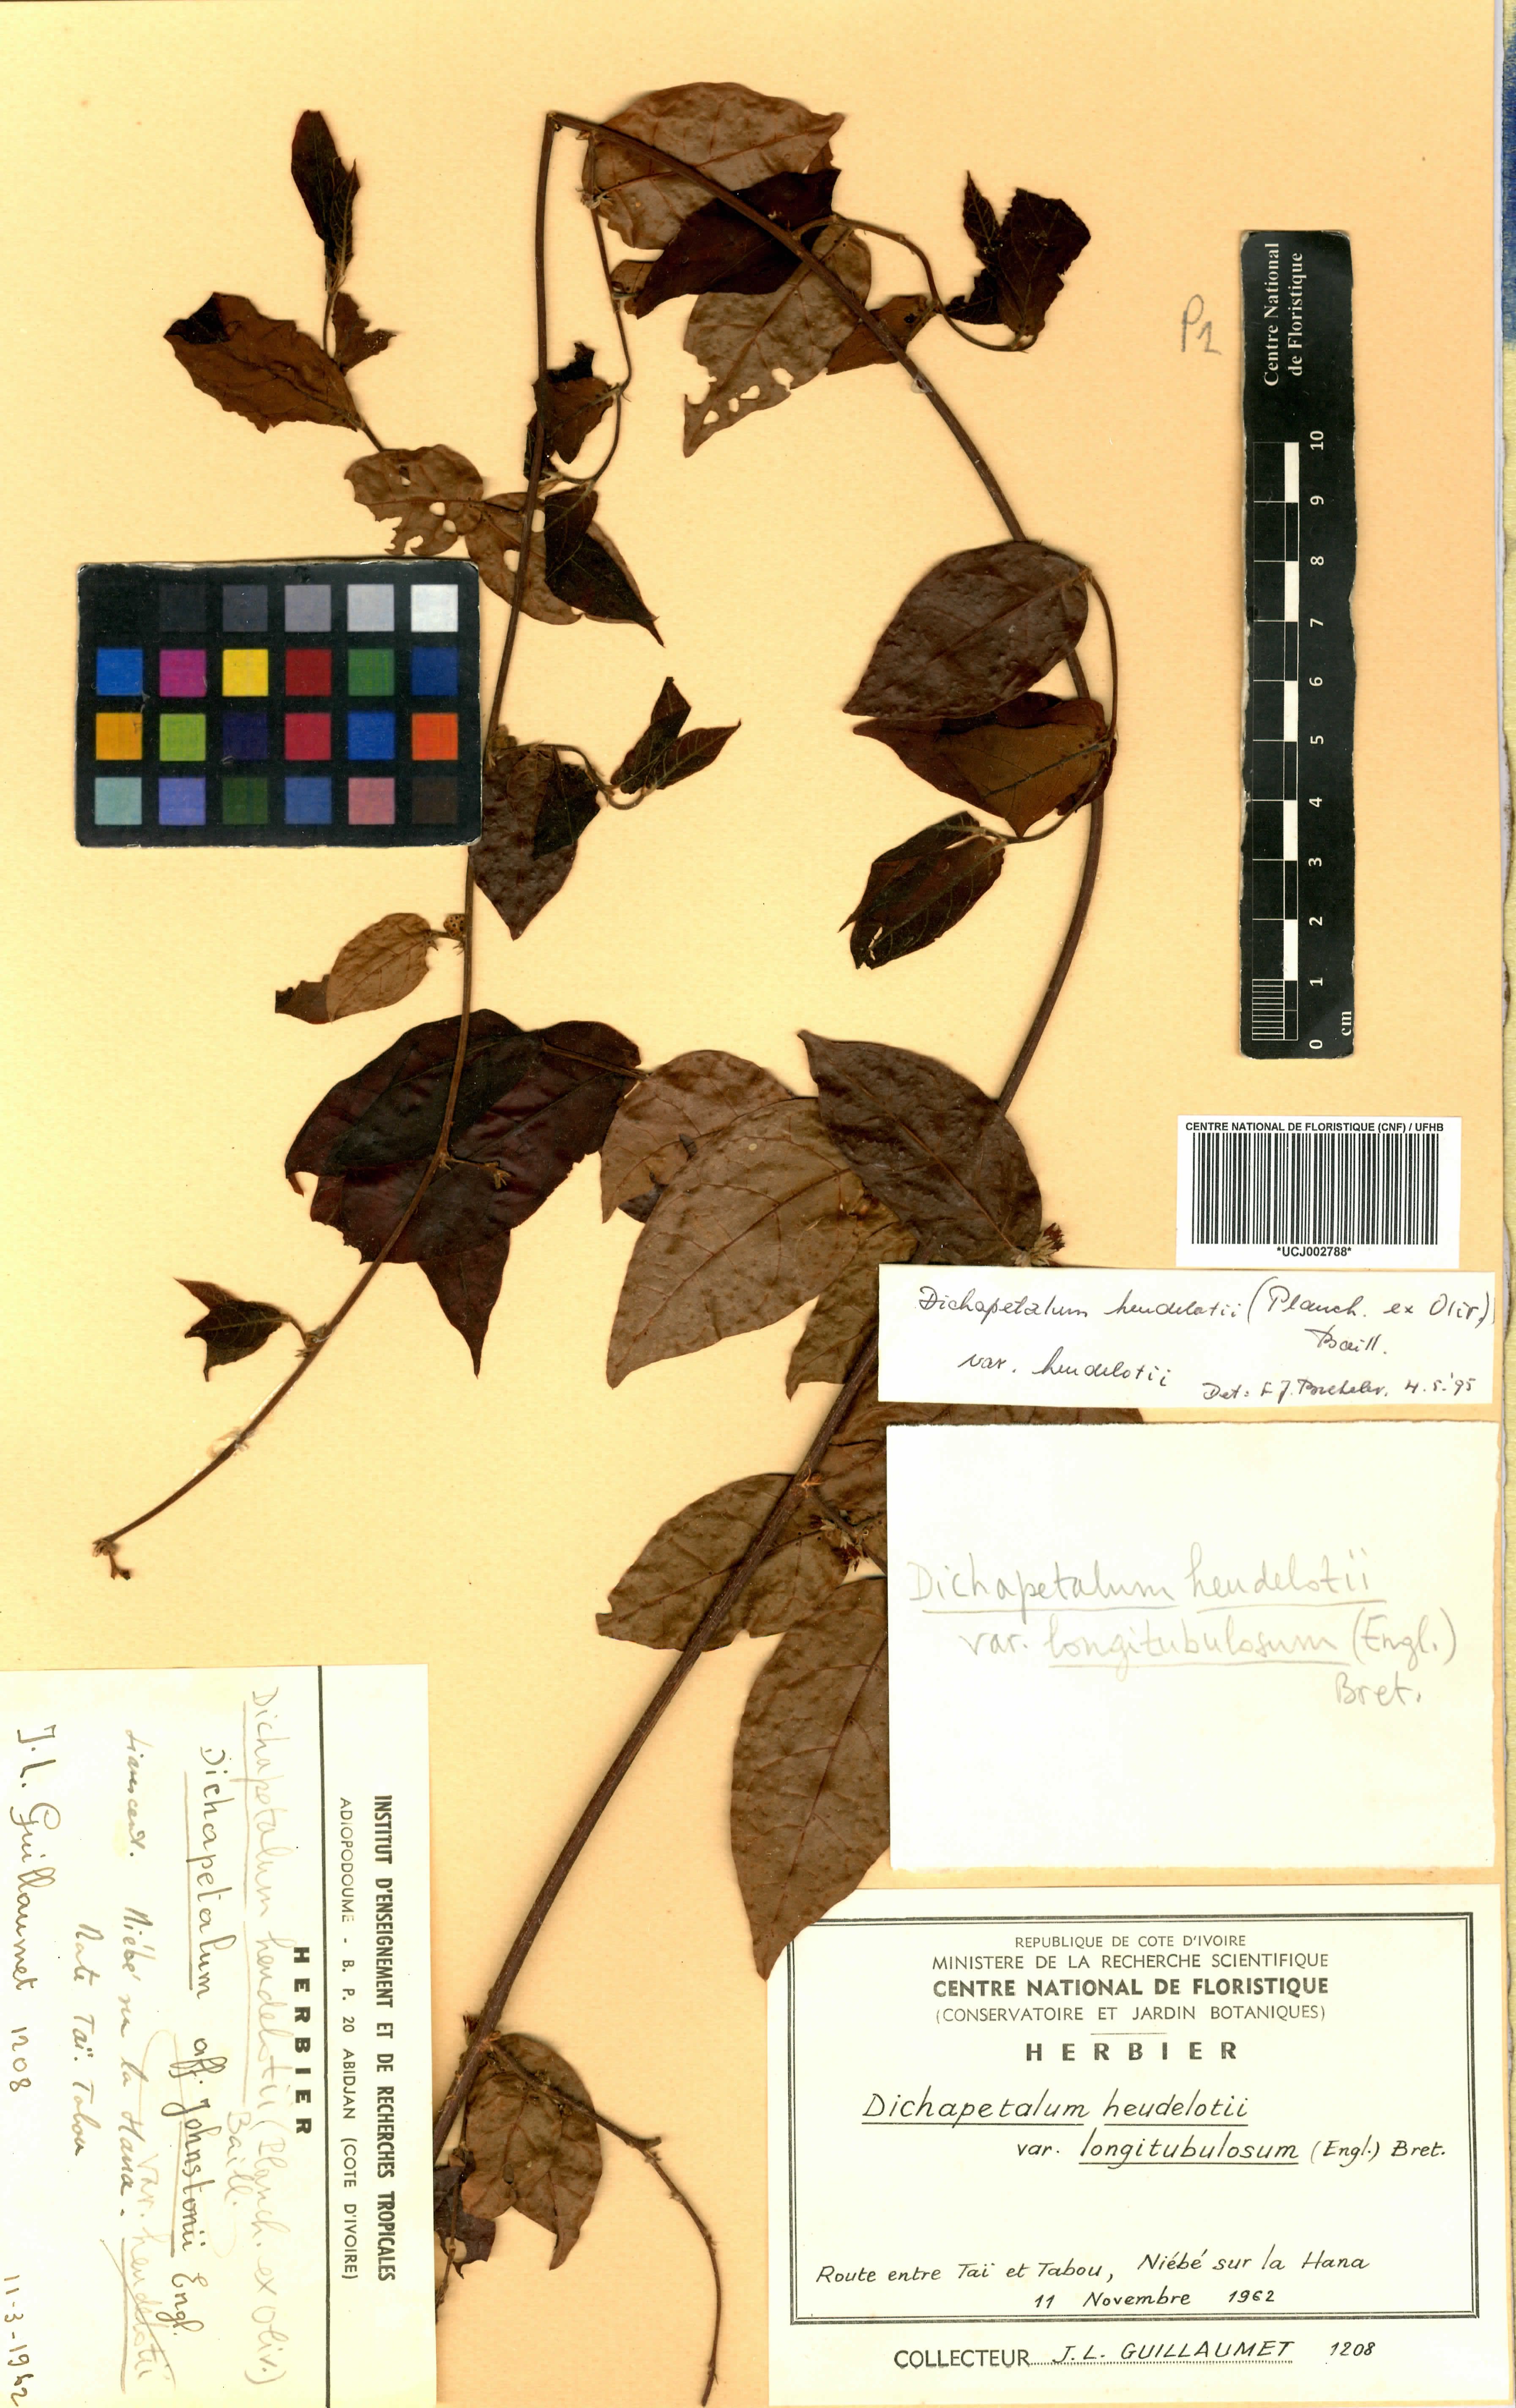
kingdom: Plantae
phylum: Tracheophyta
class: Magnoliopsida
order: Malpighiales
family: Dichapetalaceae
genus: Dichapetalum
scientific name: Dichapetalum heudelotii
